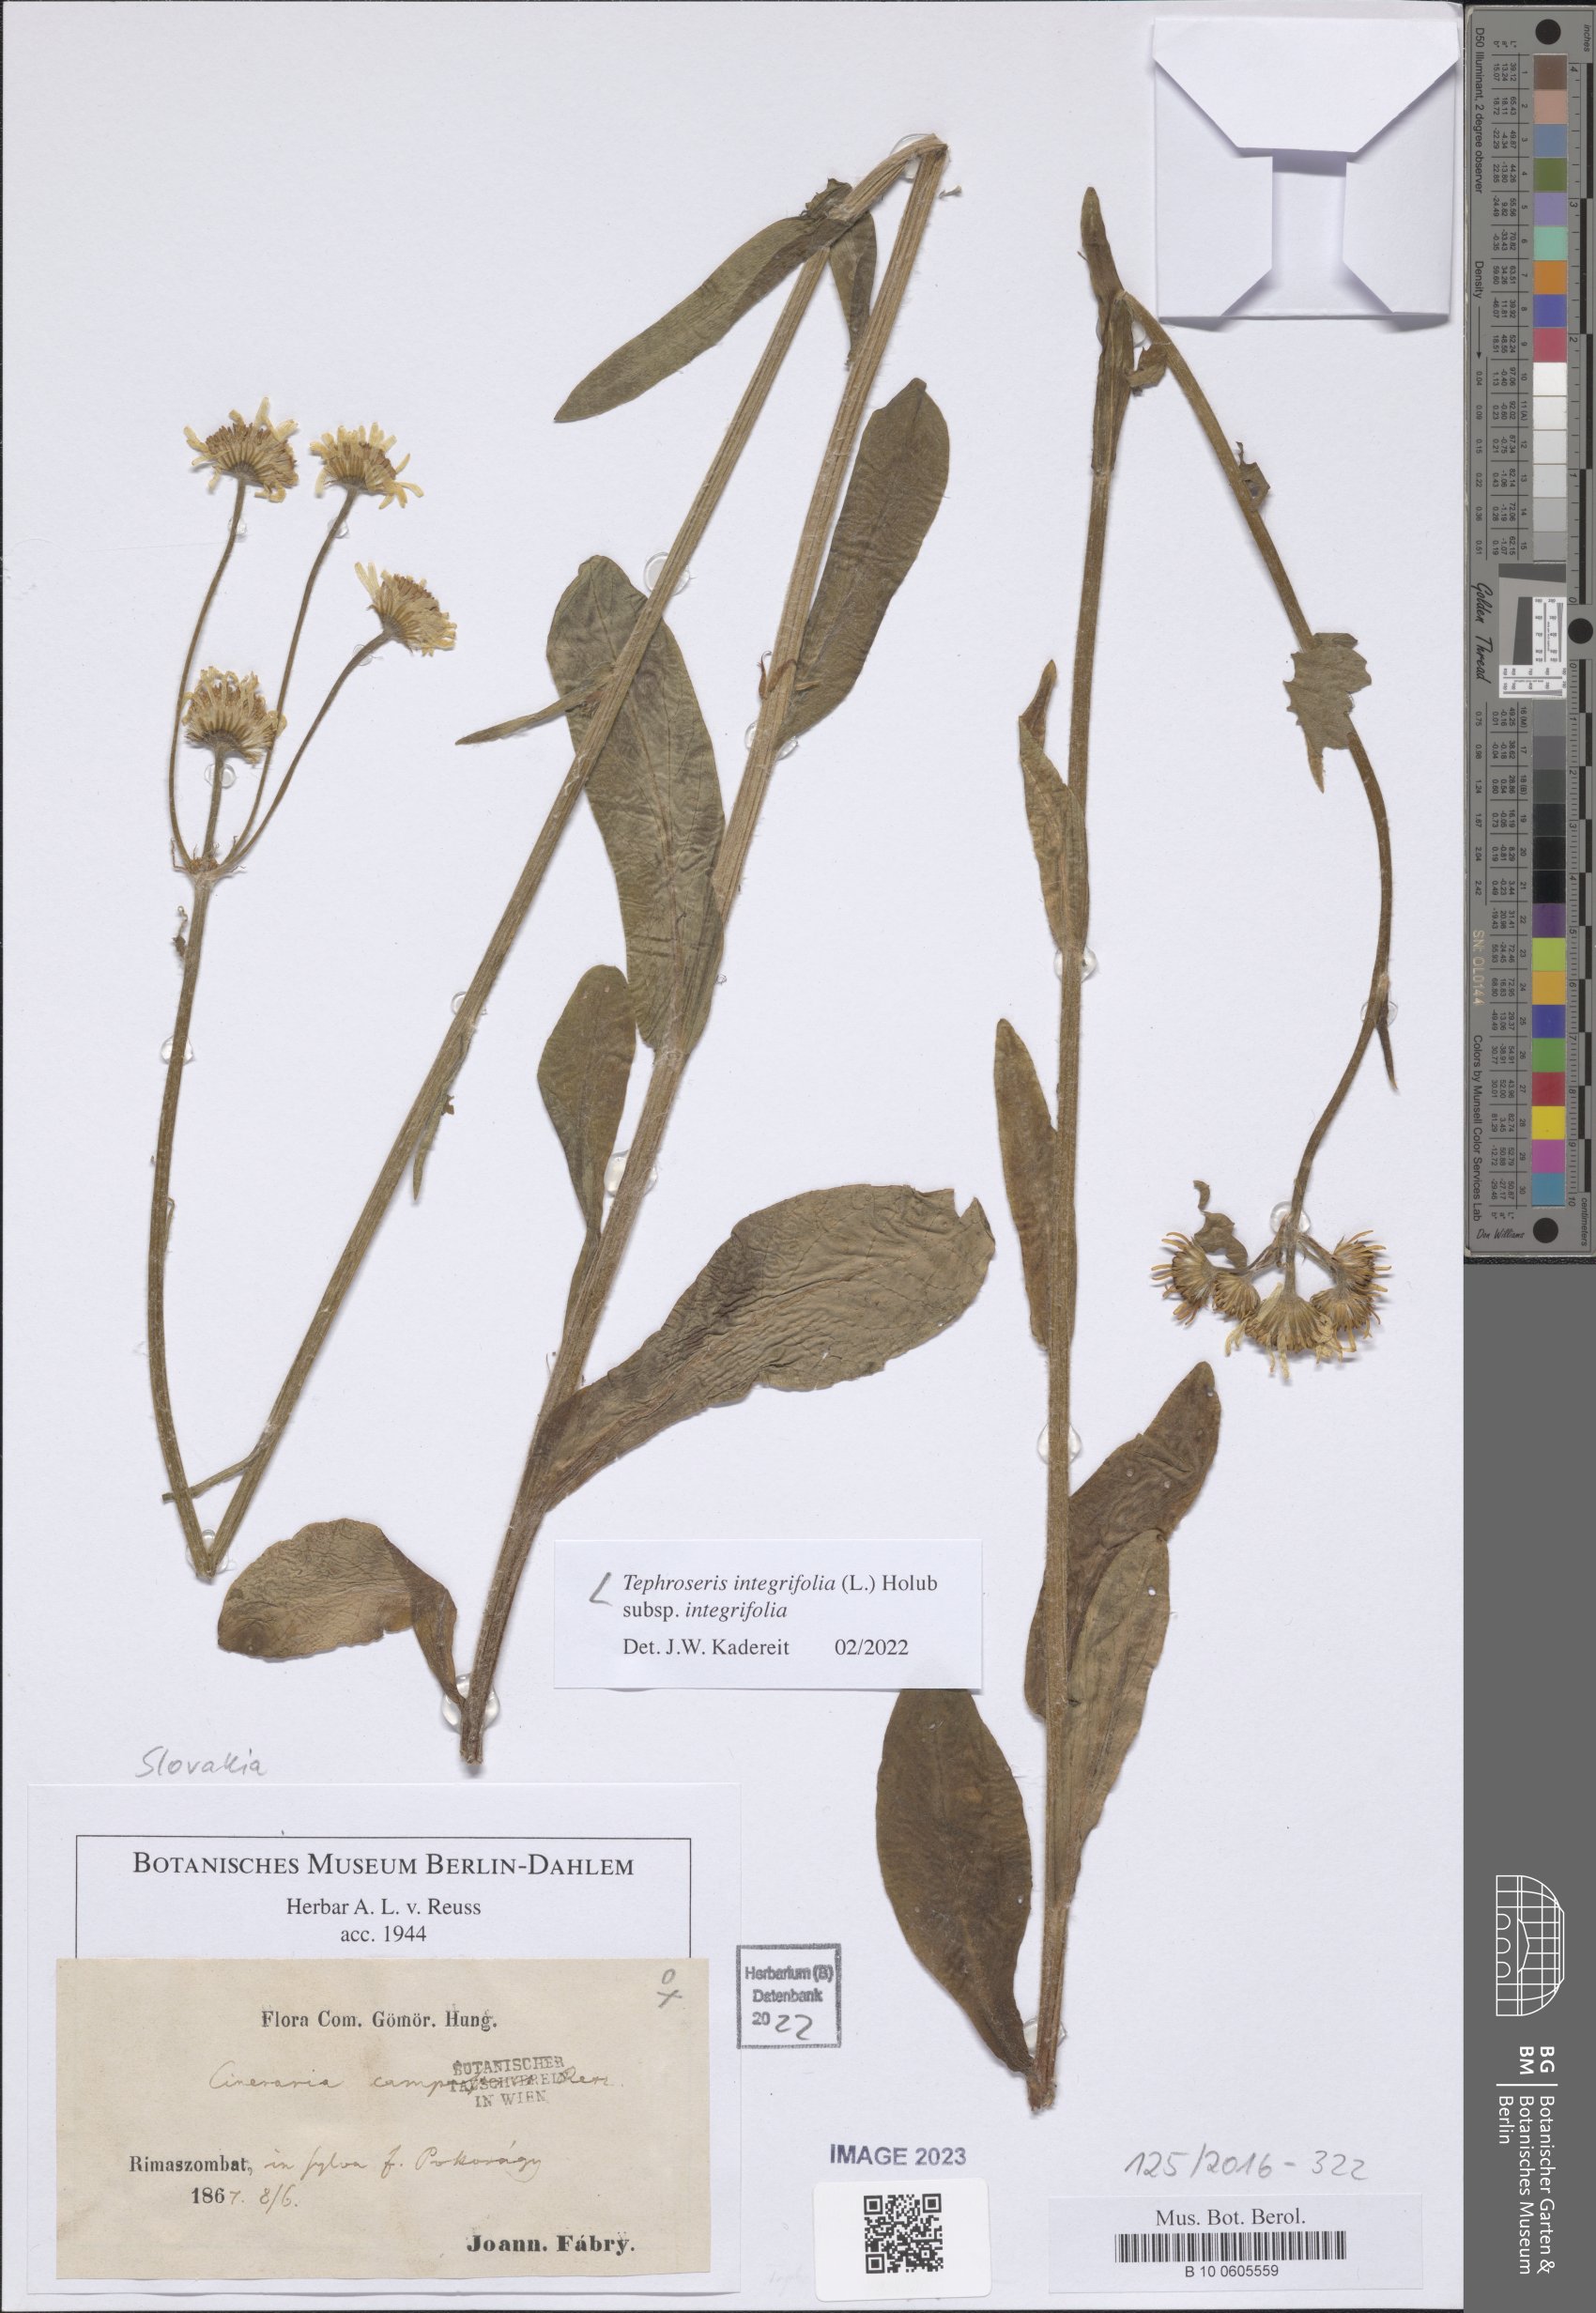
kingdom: Plantae
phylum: Tracheophyta
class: Magnoliopsida
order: Asterales
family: Asteraceae
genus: Tephroseris
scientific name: Tephroseris integrifolia
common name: Field fleawort
